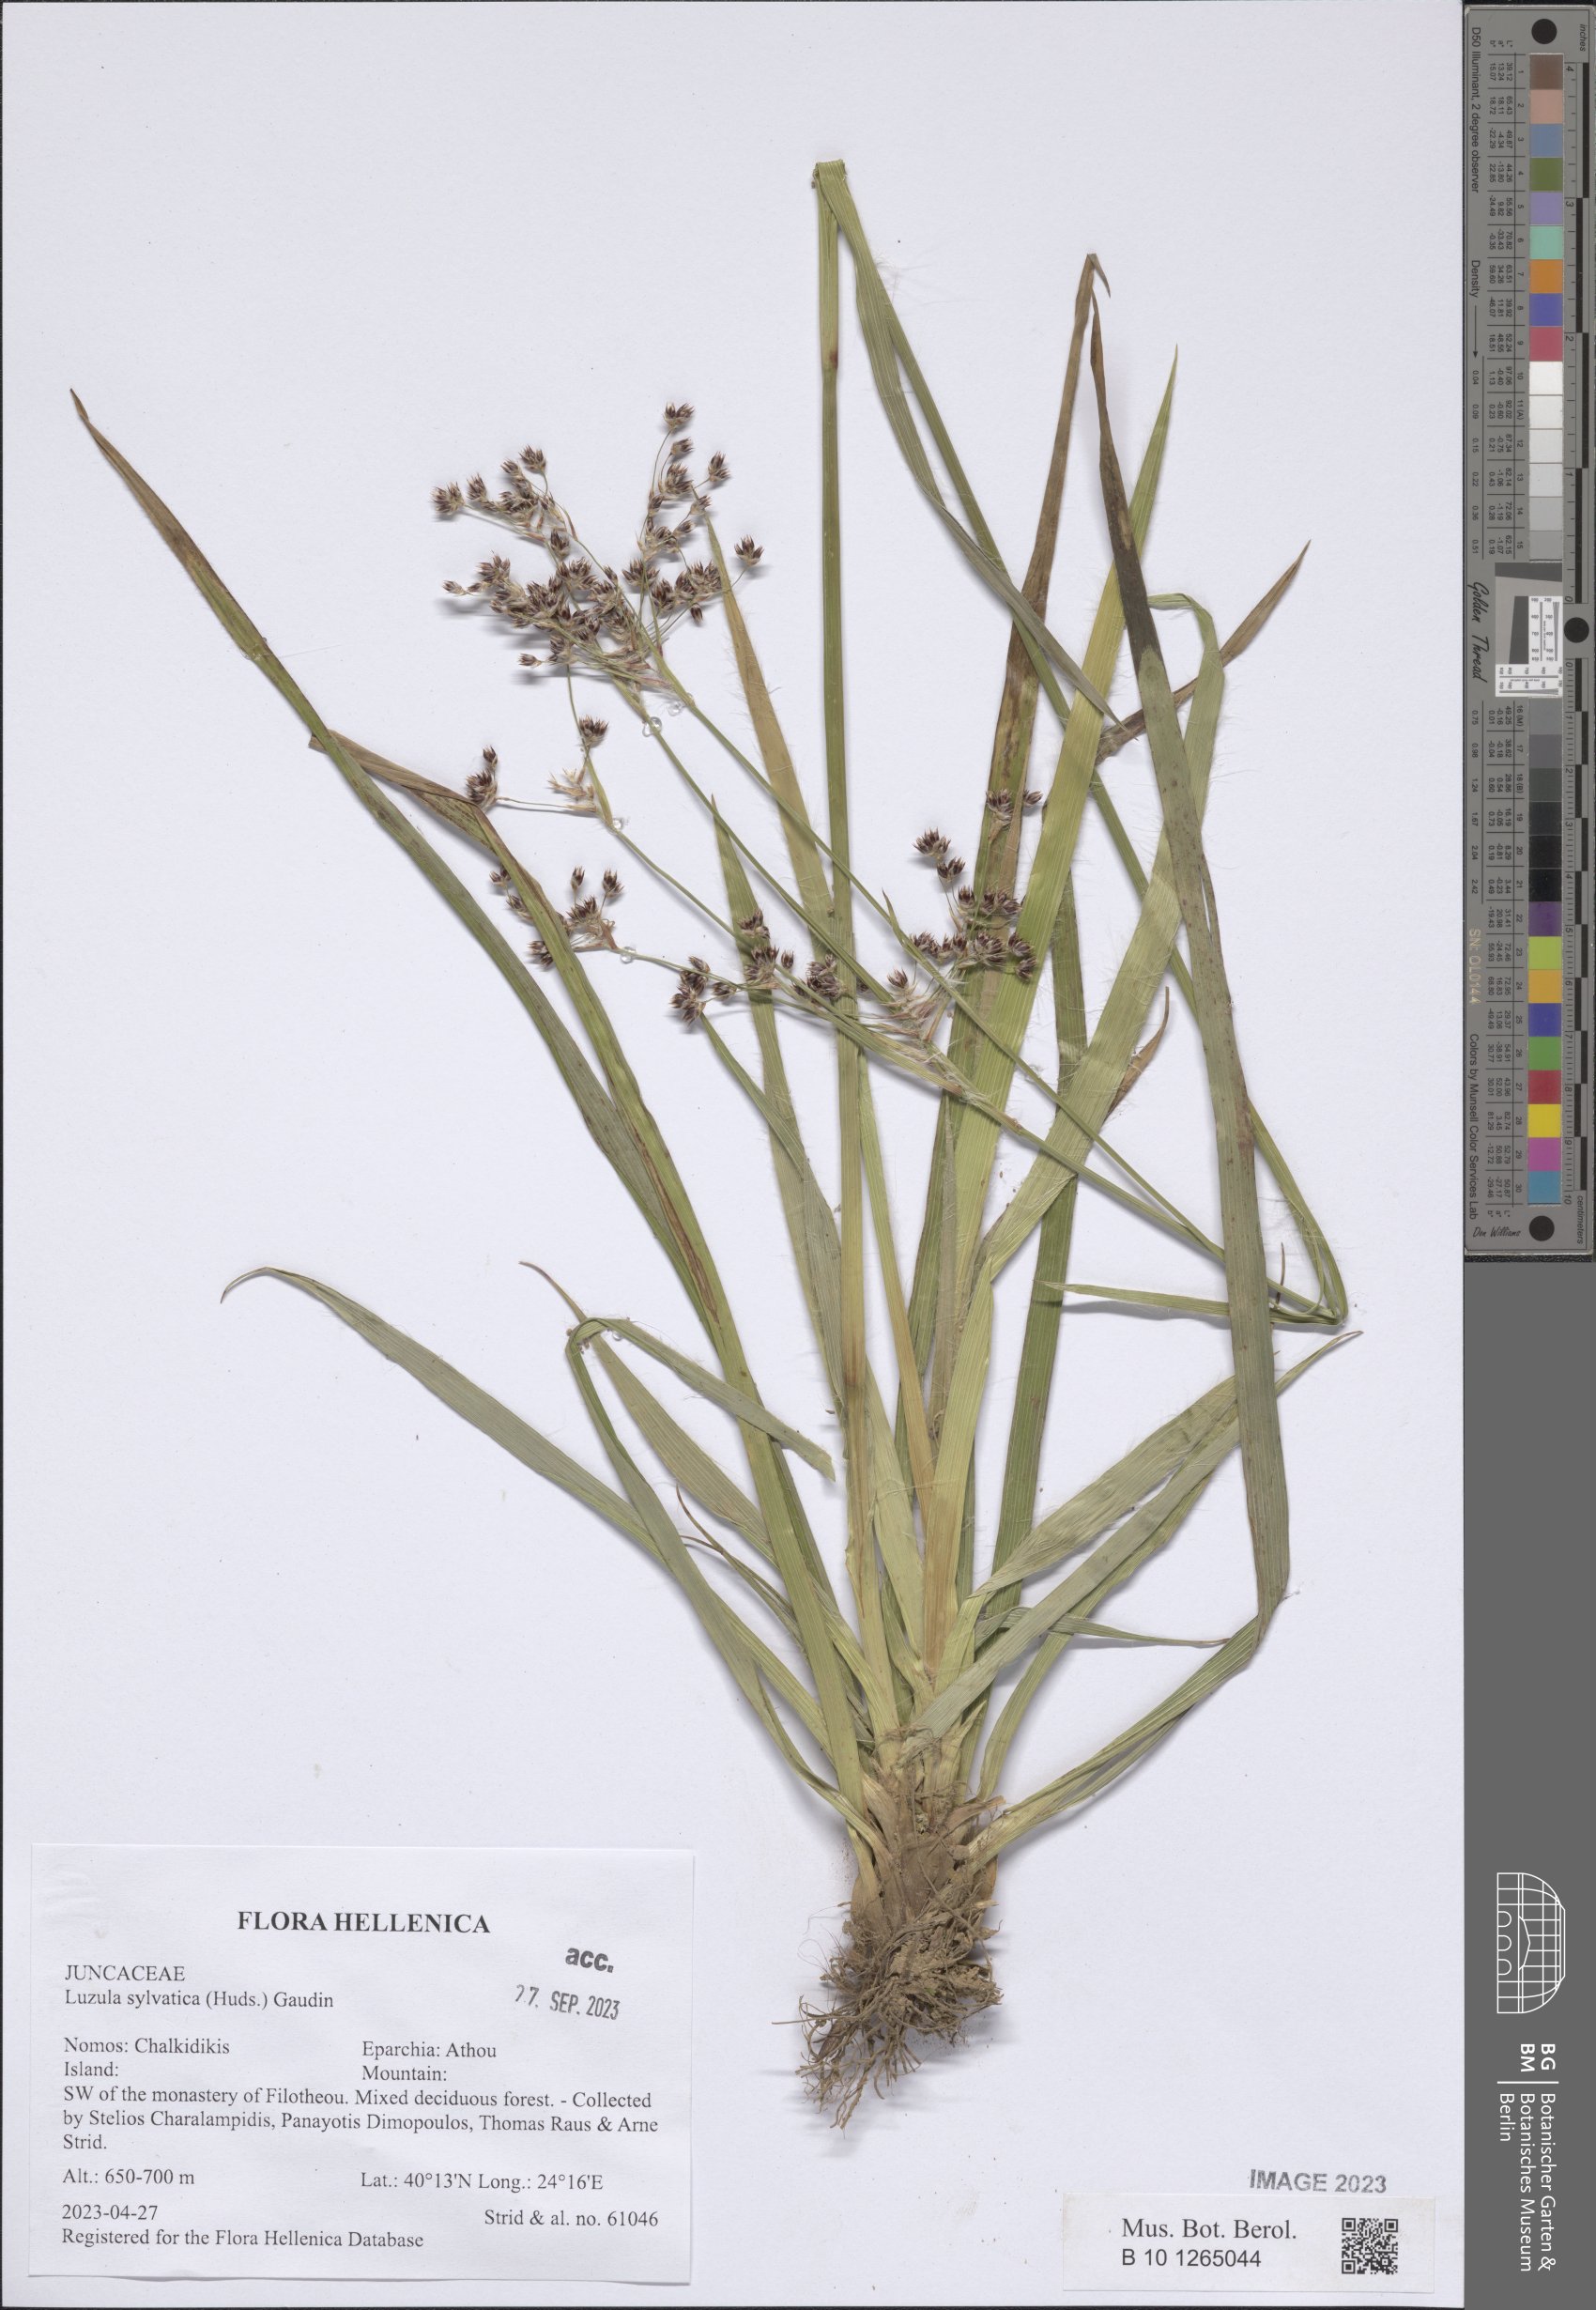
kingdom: Plantae
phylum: Tracheophyta
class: Liliopsida
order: Poales
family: Juncaceae
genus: Luzula
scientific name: Luzula sylvatica
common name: Great wood-rush
